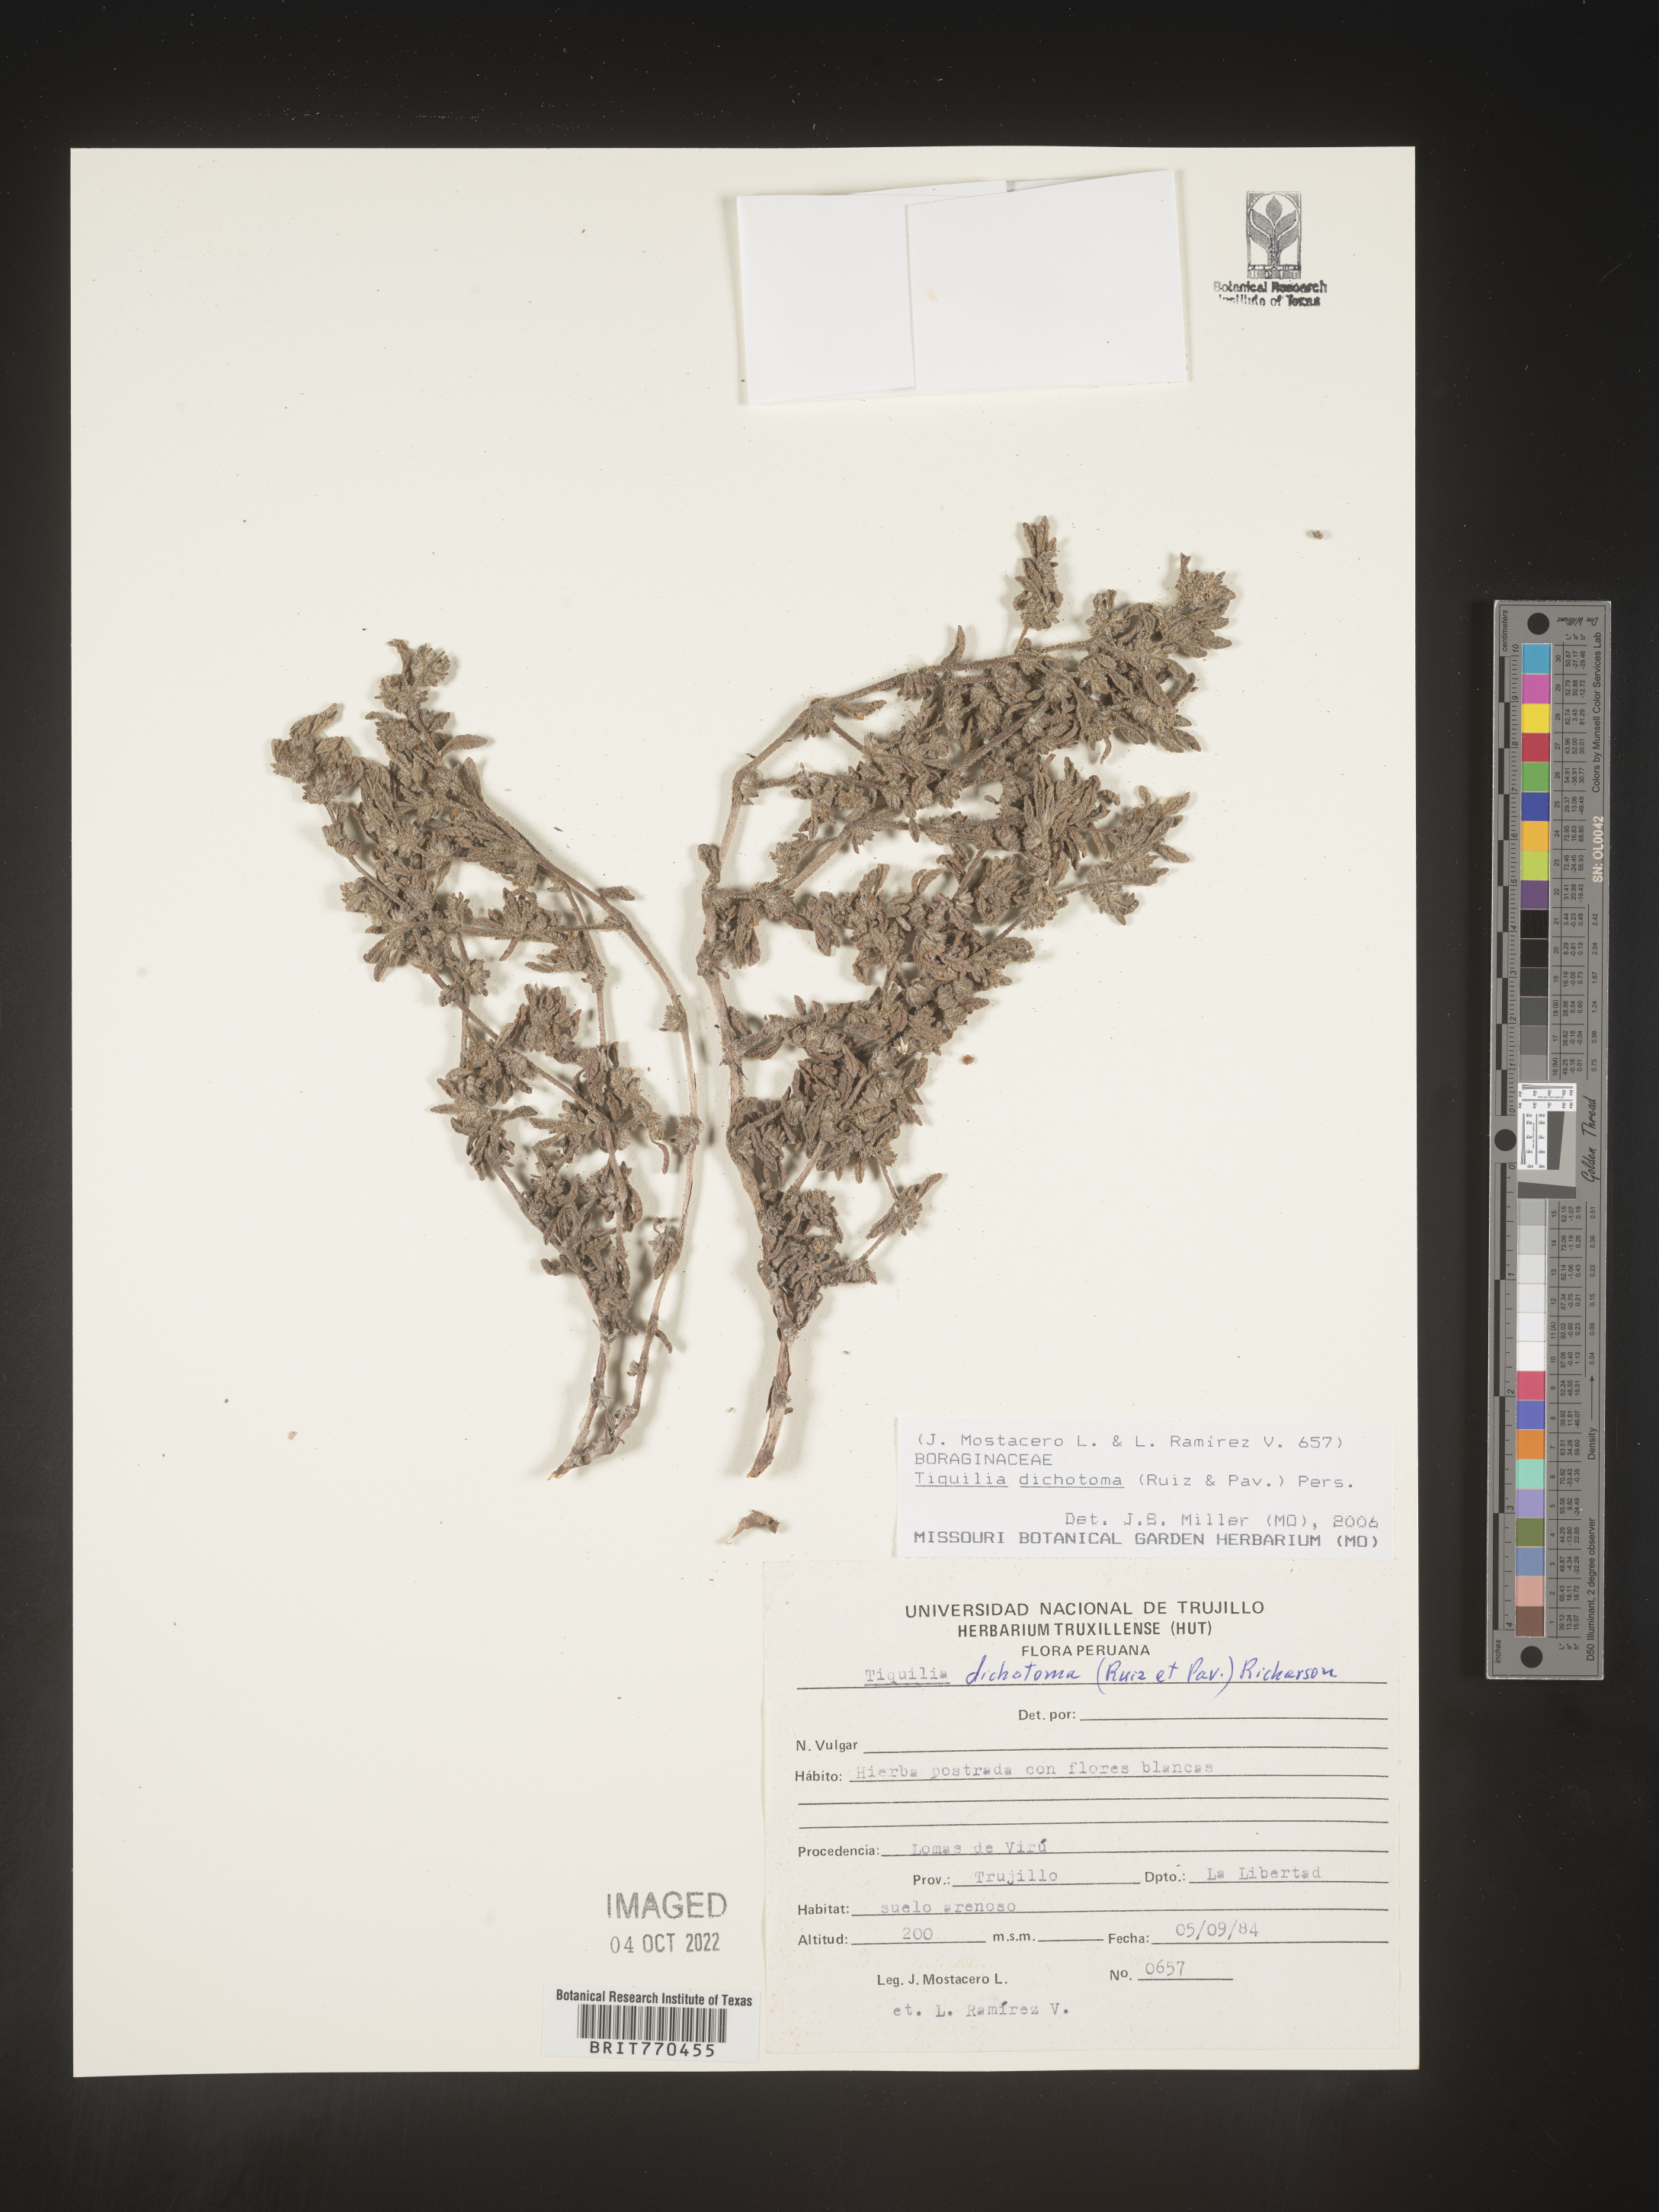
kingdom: Plantae
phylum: Tracheophyta
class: Magnoliopsida
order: Boraginales
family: Ehretiaceae
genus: Tiquilia
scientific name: Tiquilia
